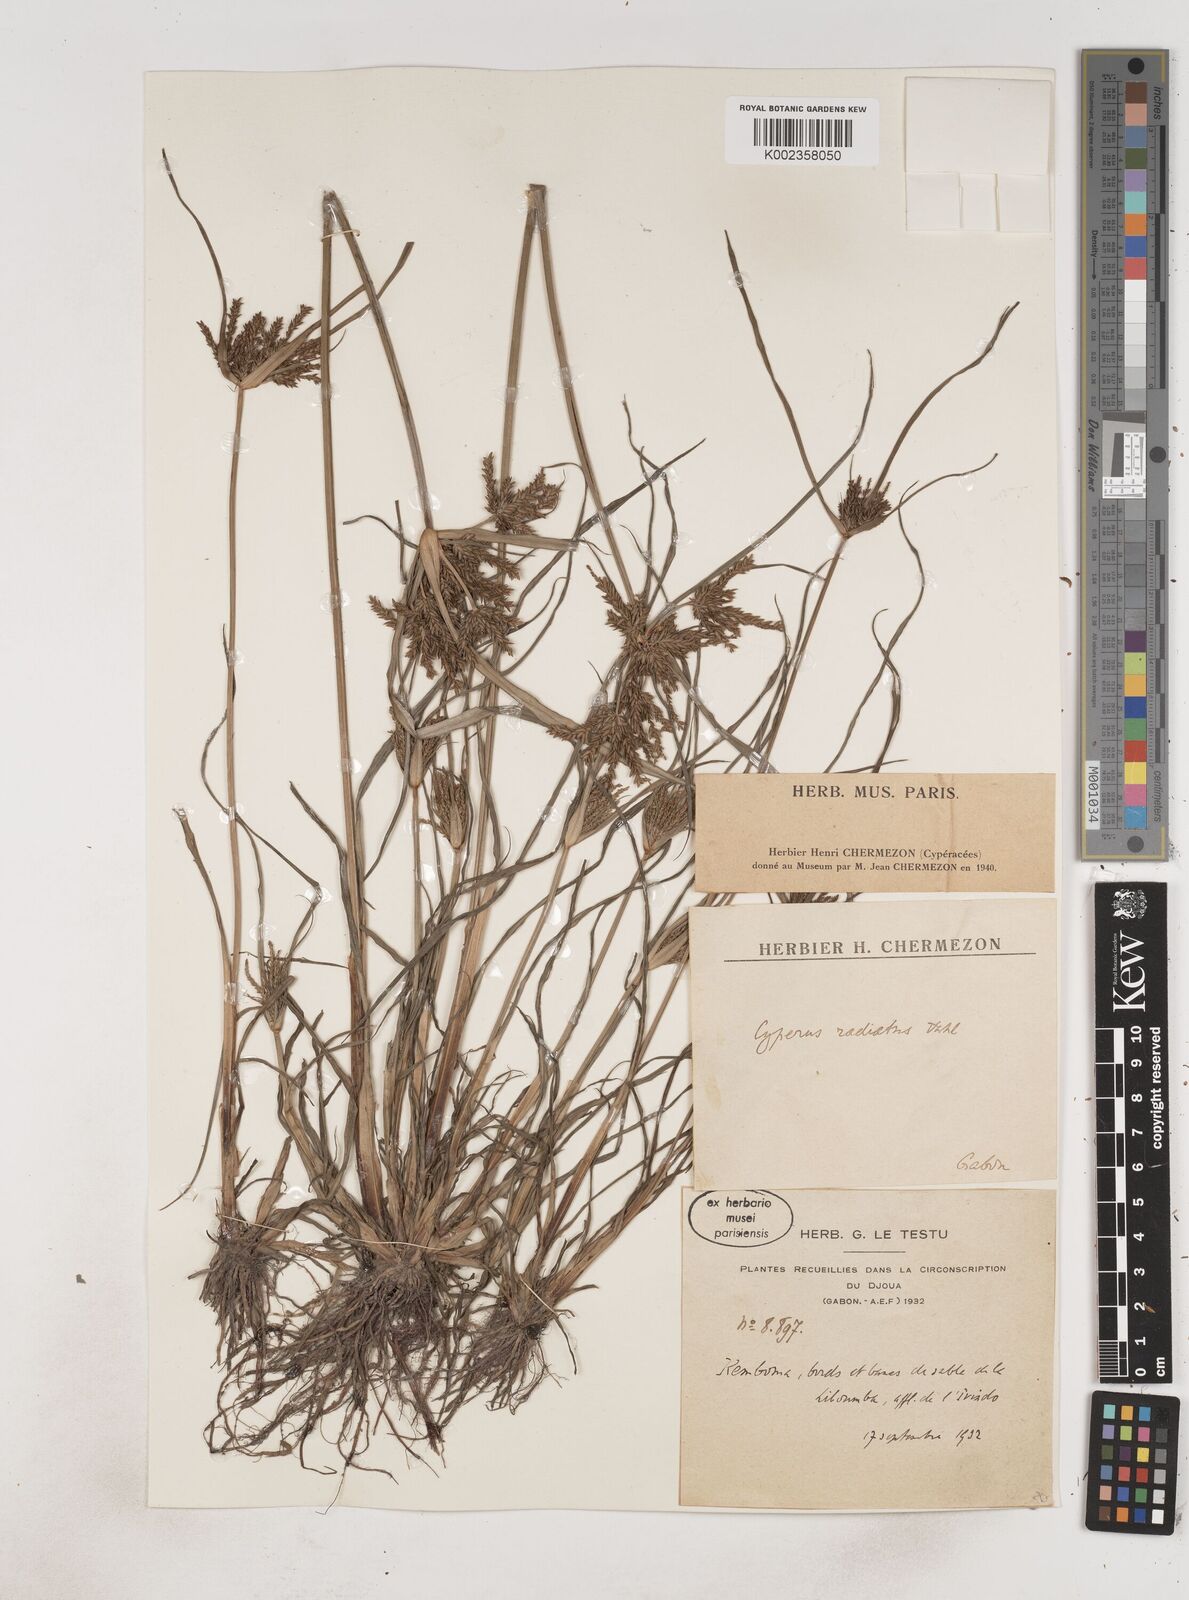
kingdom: Plantae
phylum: Tracheophyta
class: Liliopsida
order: Poales
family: Cyperaceae
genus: Cyperus
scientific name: Cyperus imbricatus
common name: Shingle flatsedge
